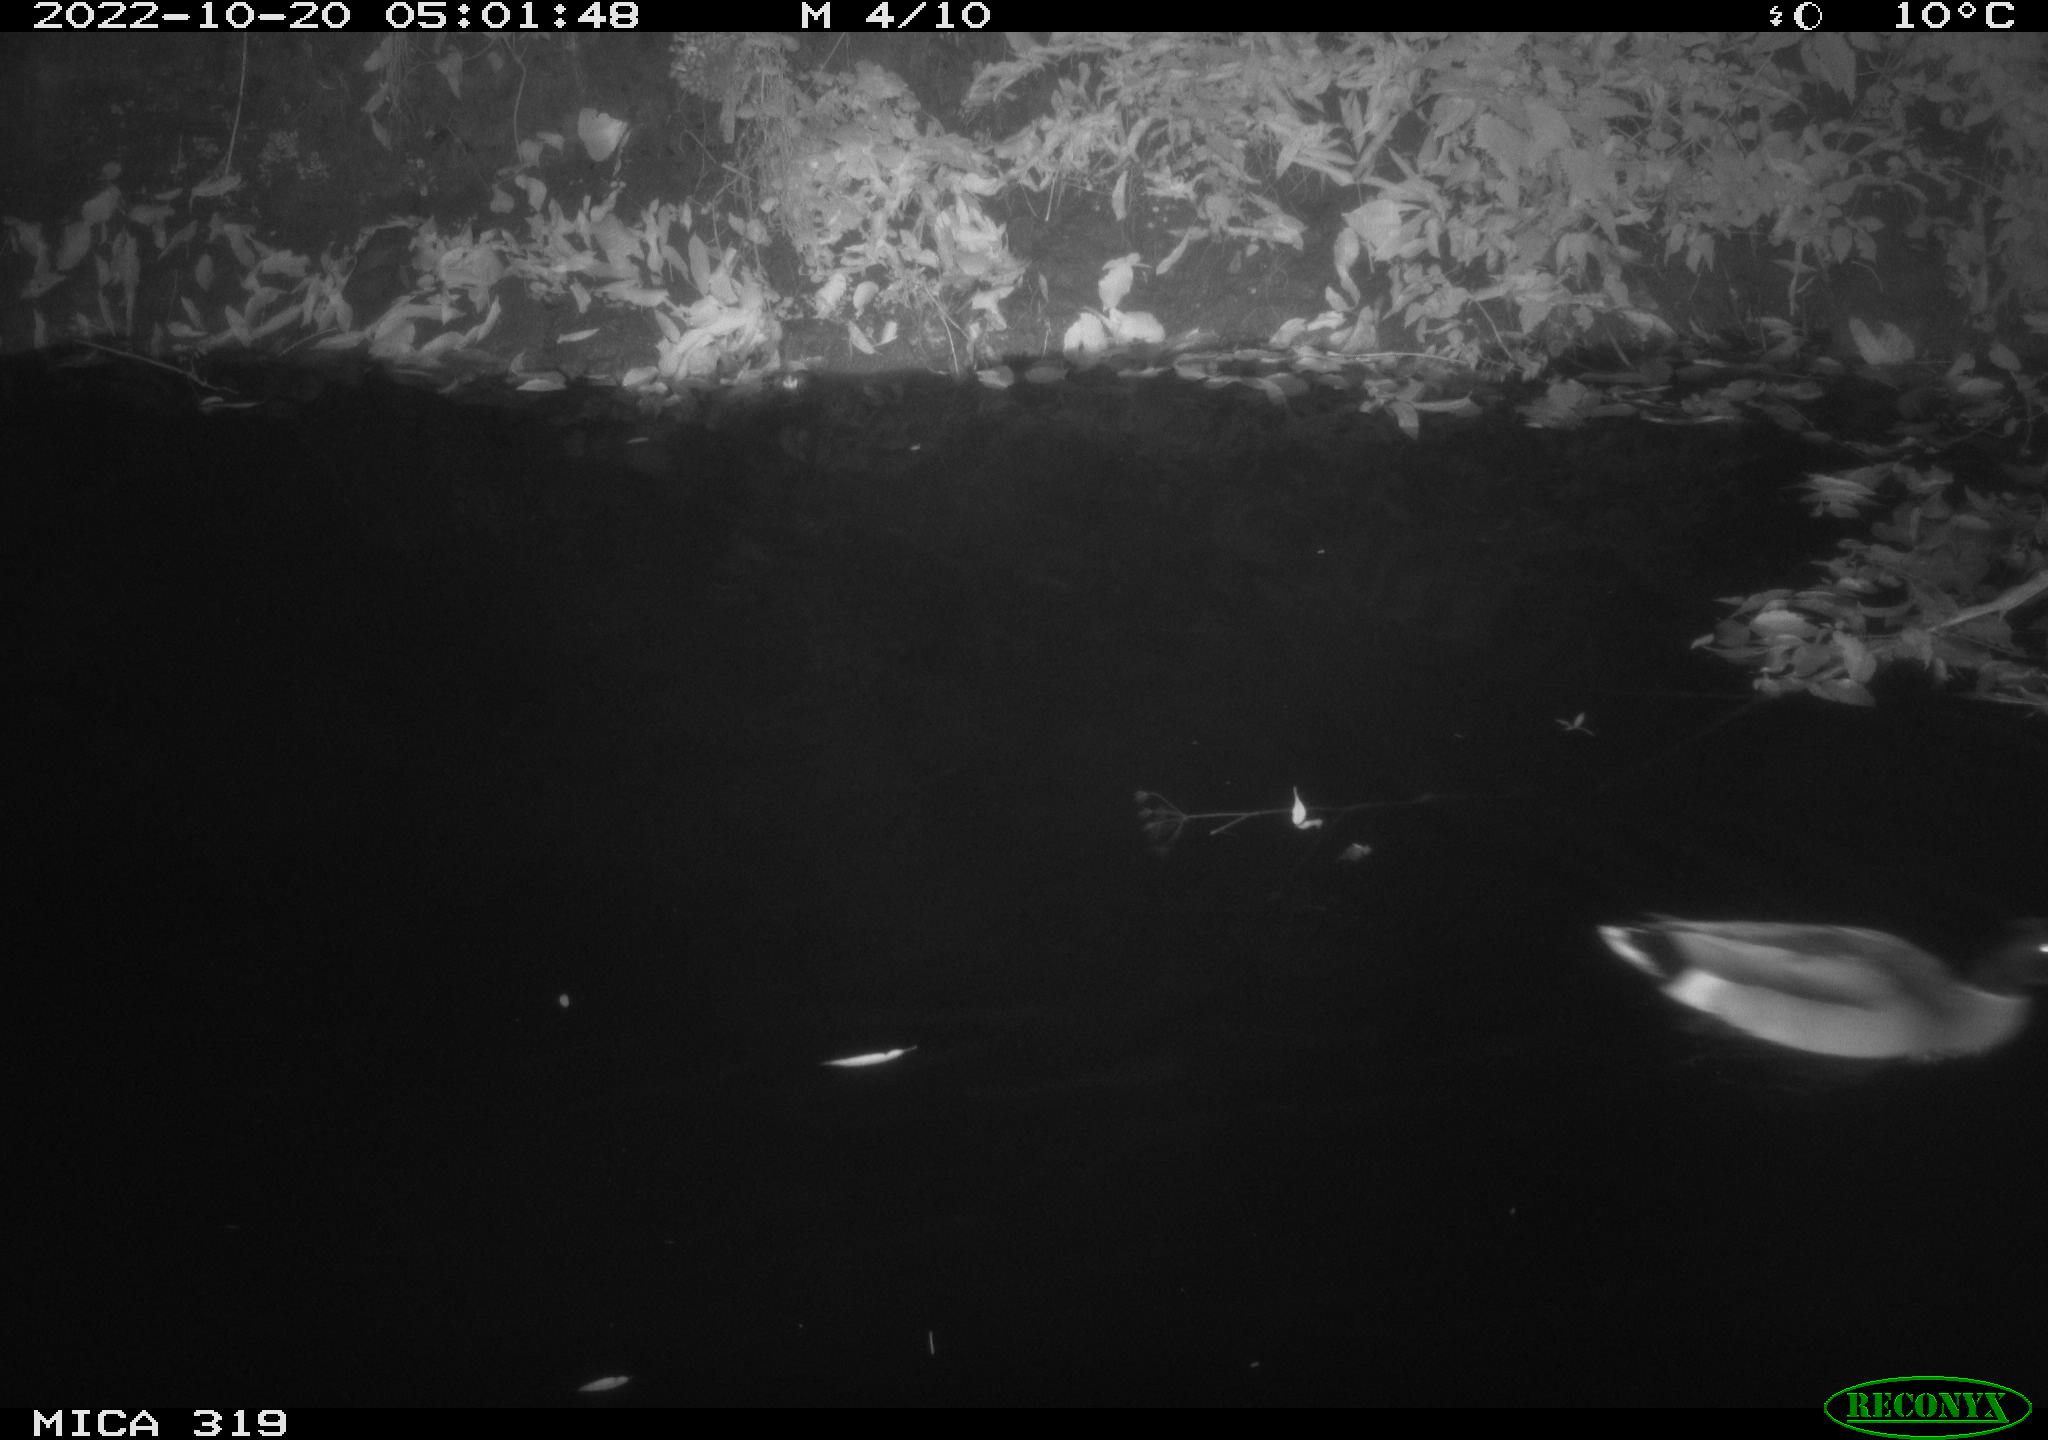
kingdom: Animalia
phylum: Chordata
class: Aves
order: Anseriformes
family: Anatidae
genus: Anas
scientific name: Anas
